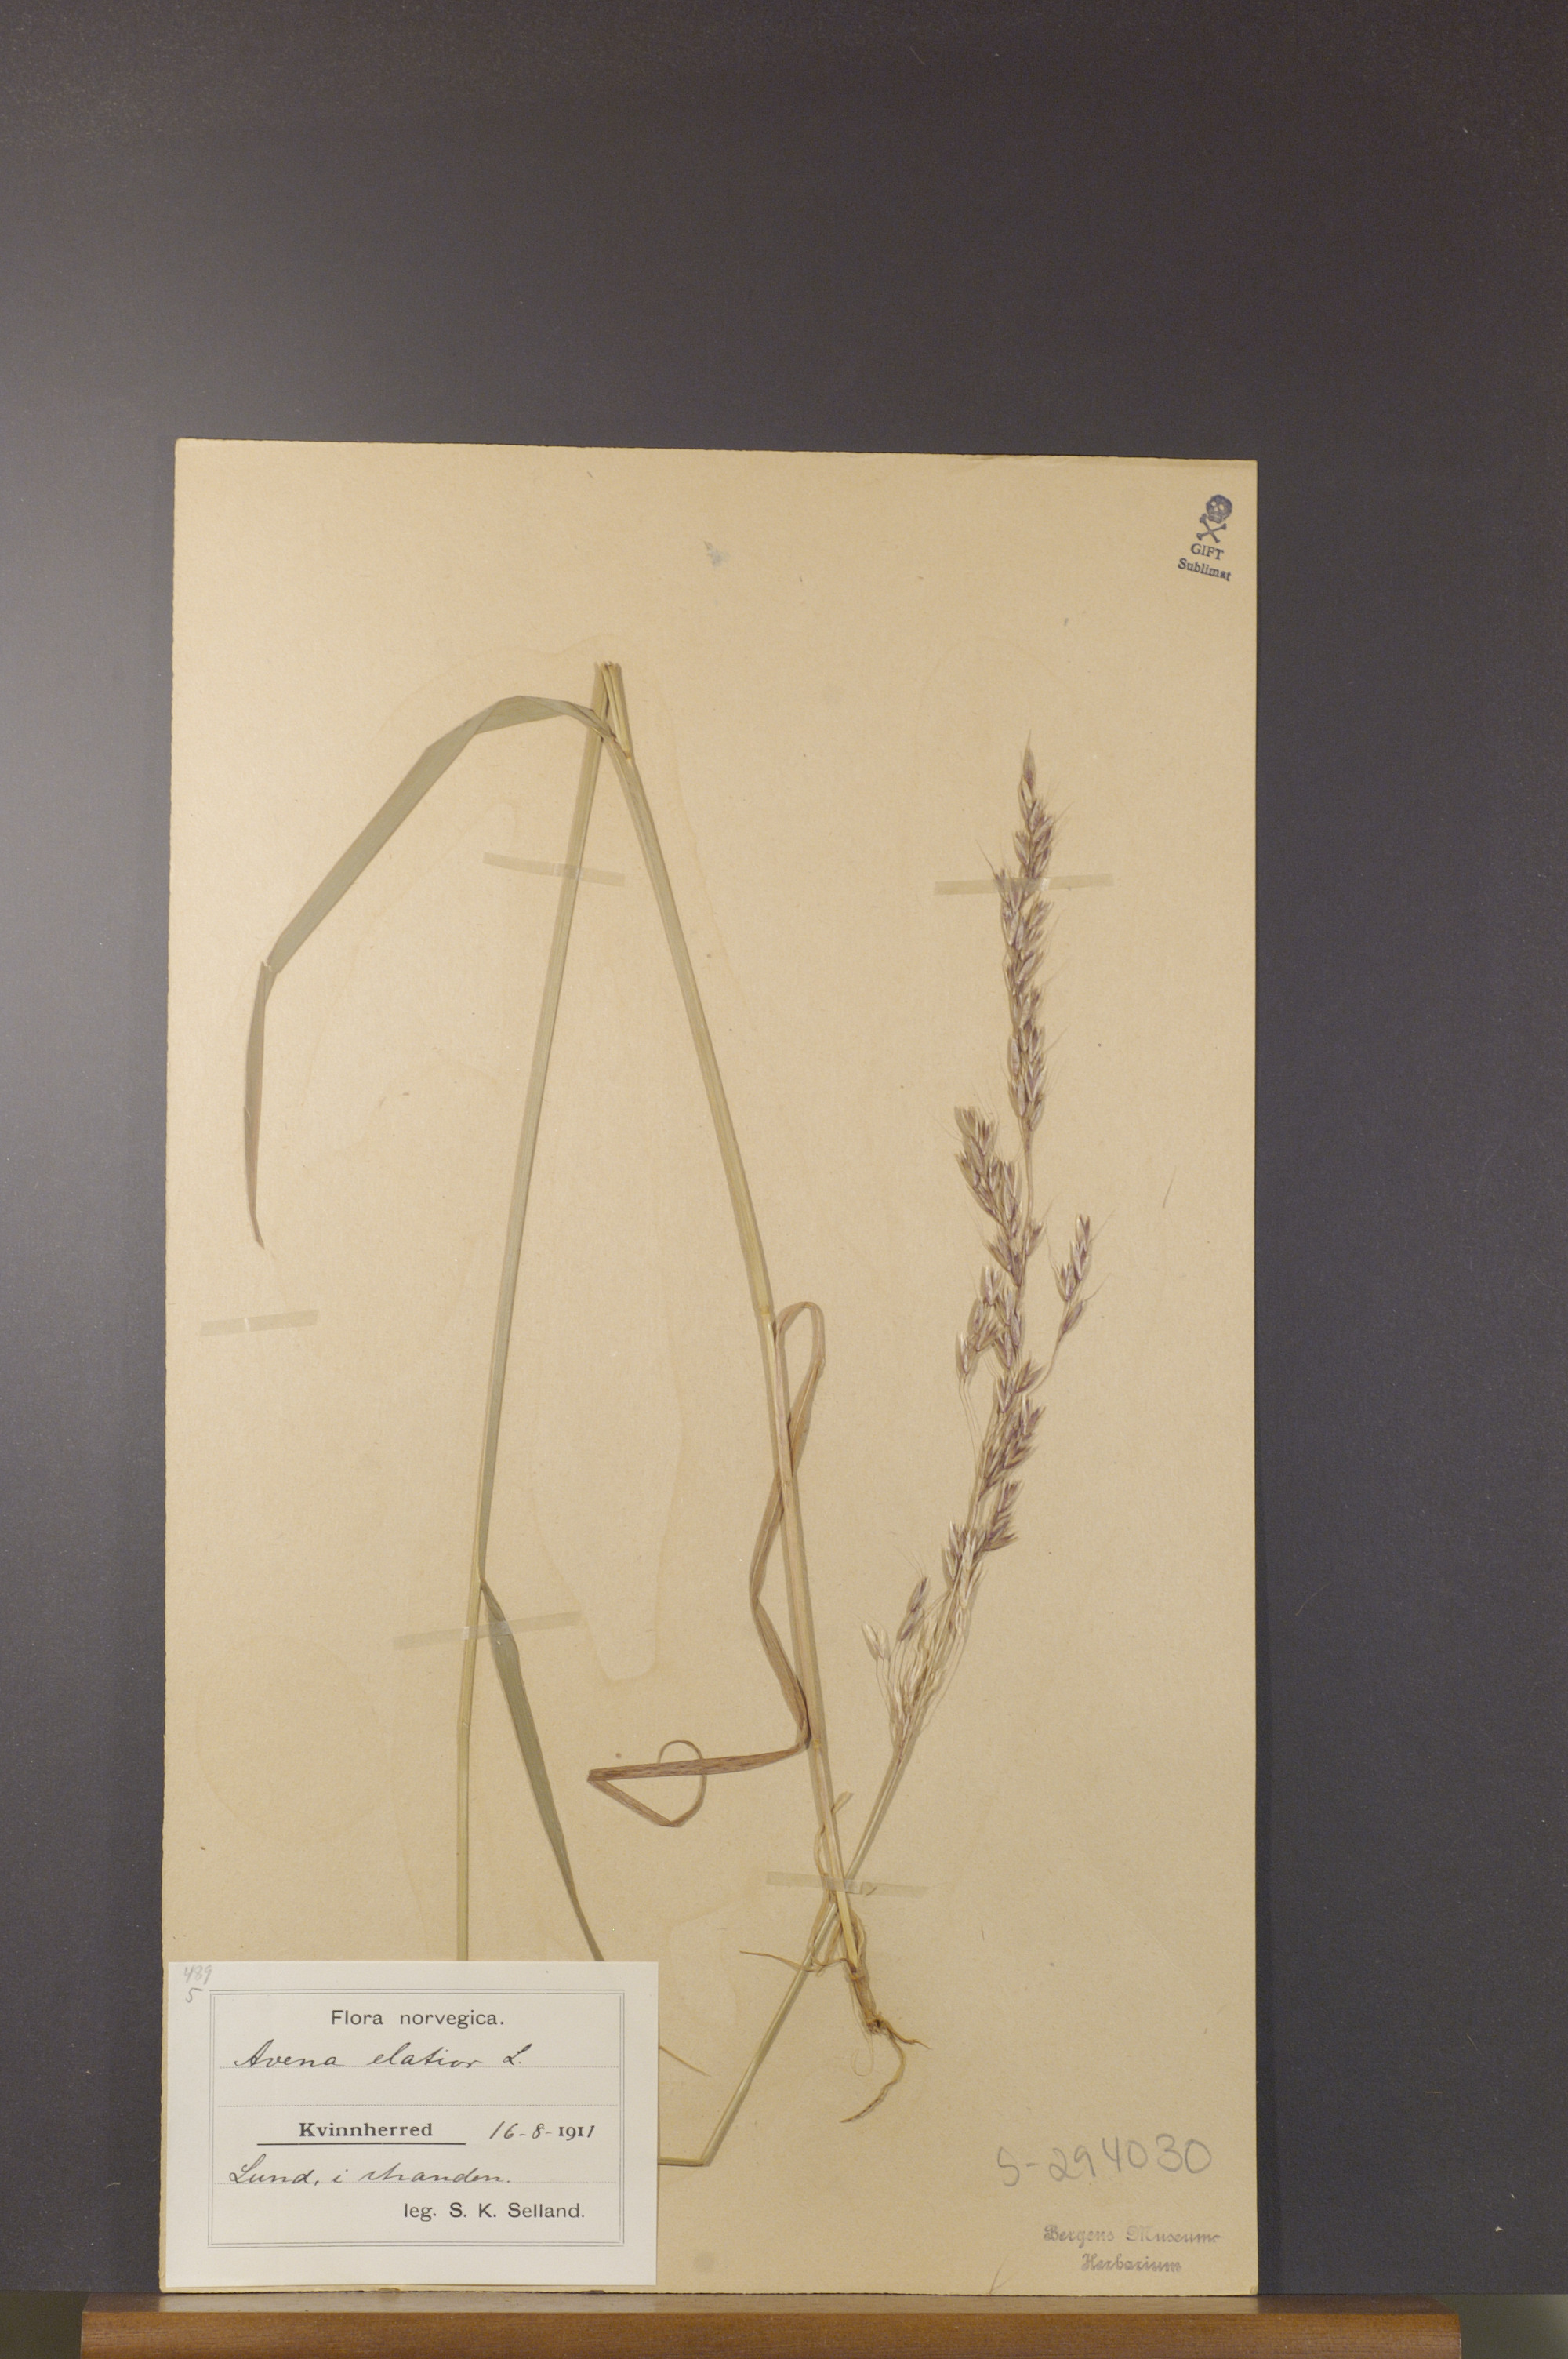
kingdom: Plantae
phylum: Tracheophyta
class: Liliopsida
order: Poales
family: Poaceae
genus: Arrhenatherum
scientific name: Arrhenatherum elatius
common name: Tall oatgrass
